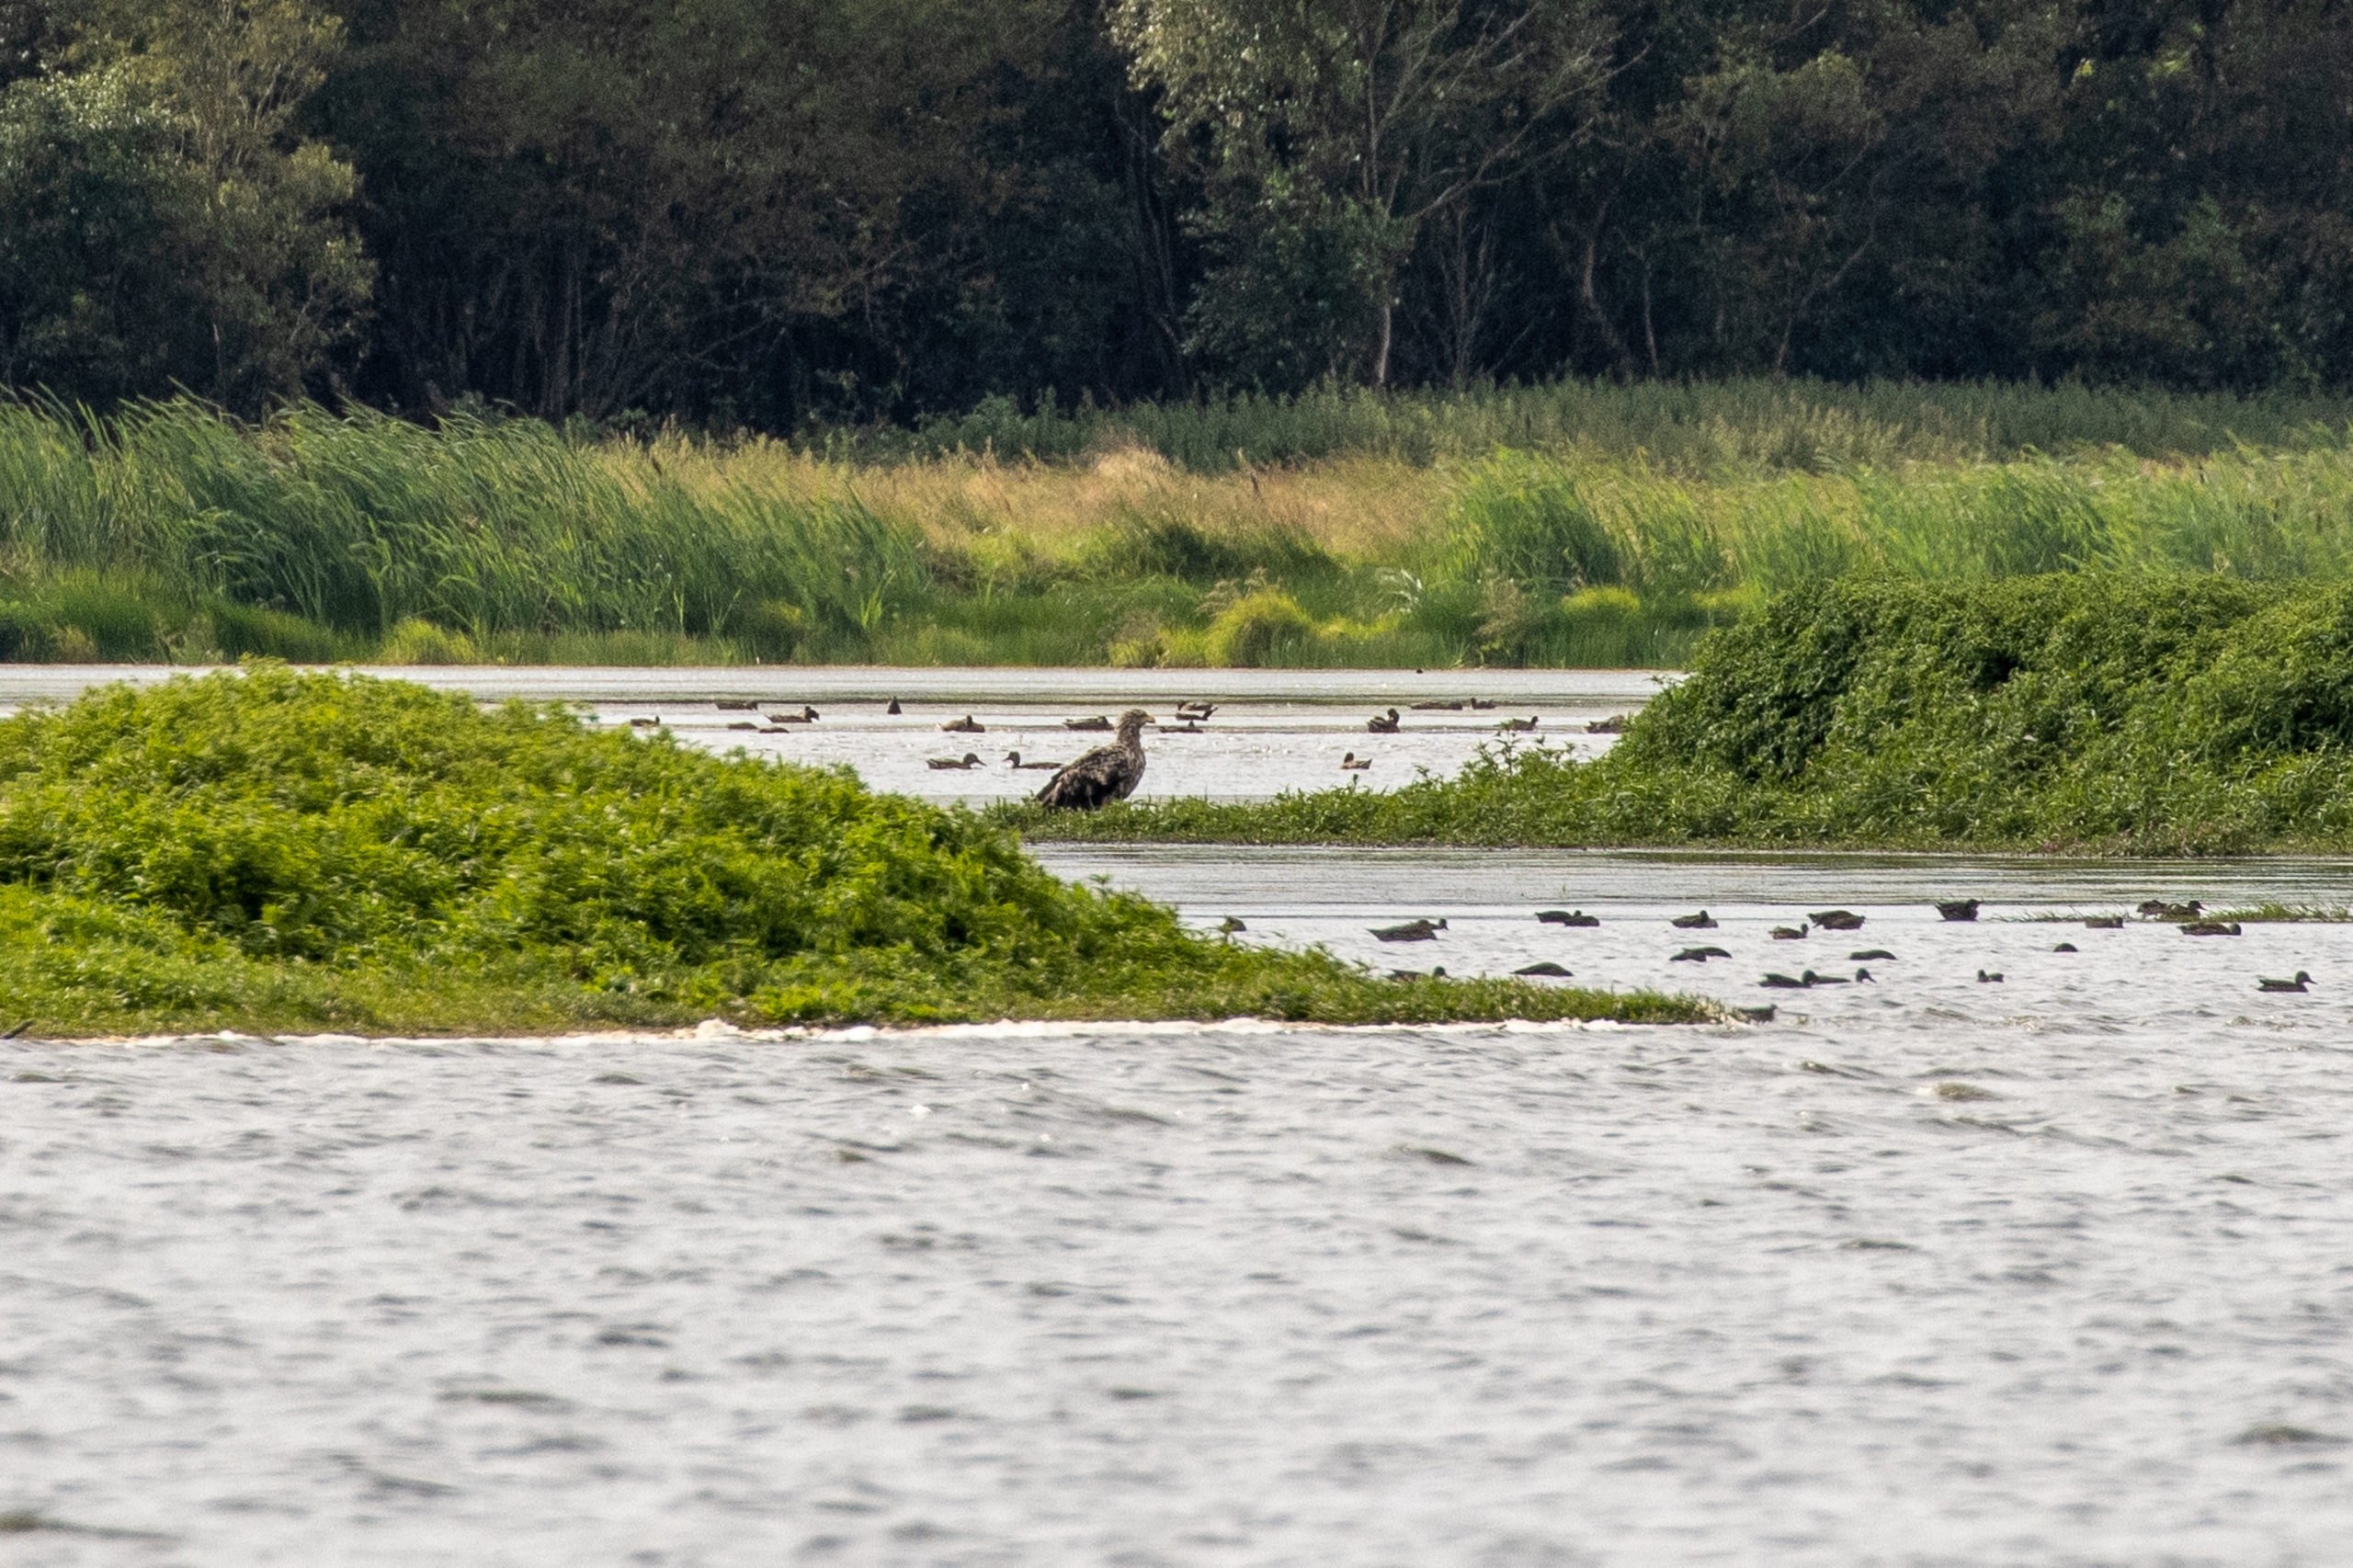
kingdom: Animalia
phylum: Chordata
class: Aves
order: Accipitriformes
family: Accipitridae
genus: Haliaeetus
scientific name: Haliaeetus albicilla
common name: Havørn
